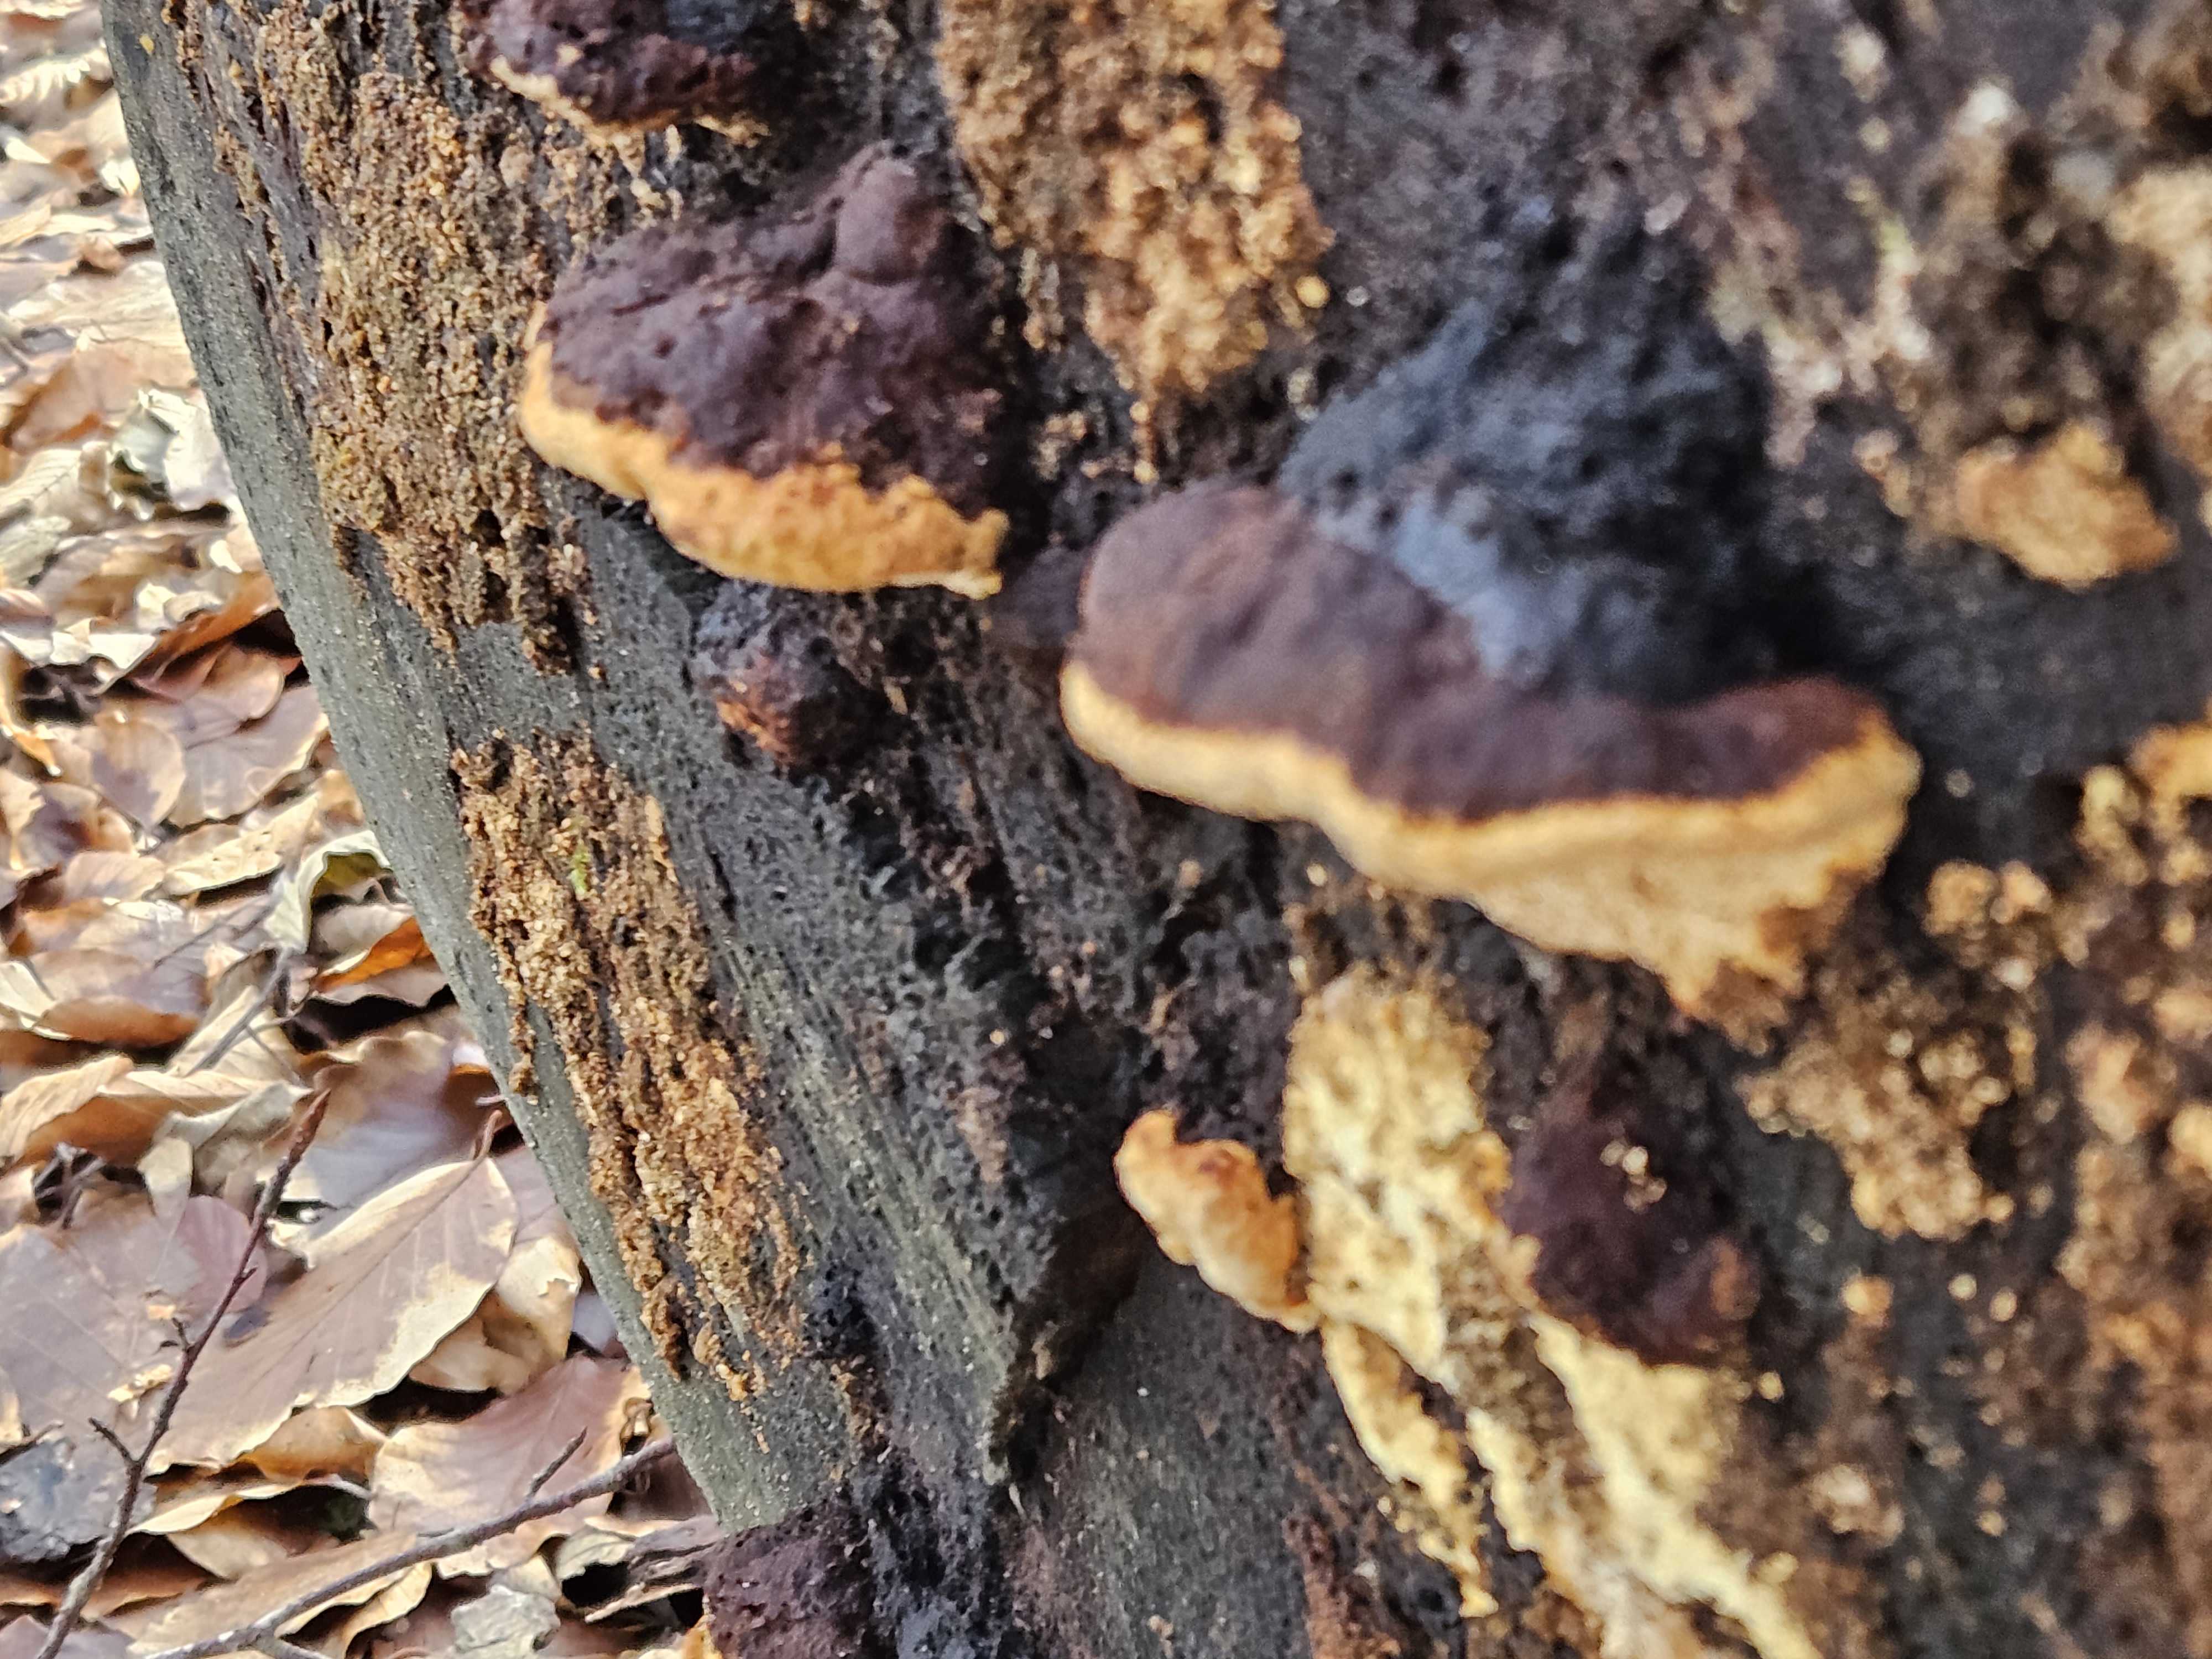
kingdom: Fungi
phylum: Basidiomycota
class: Agaricomycetes
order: Gloeophyllales
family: Gloeophyllaceae
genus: Gloeophyllum
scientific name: Gloeophyllum odoratum
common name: duftende korkhat
